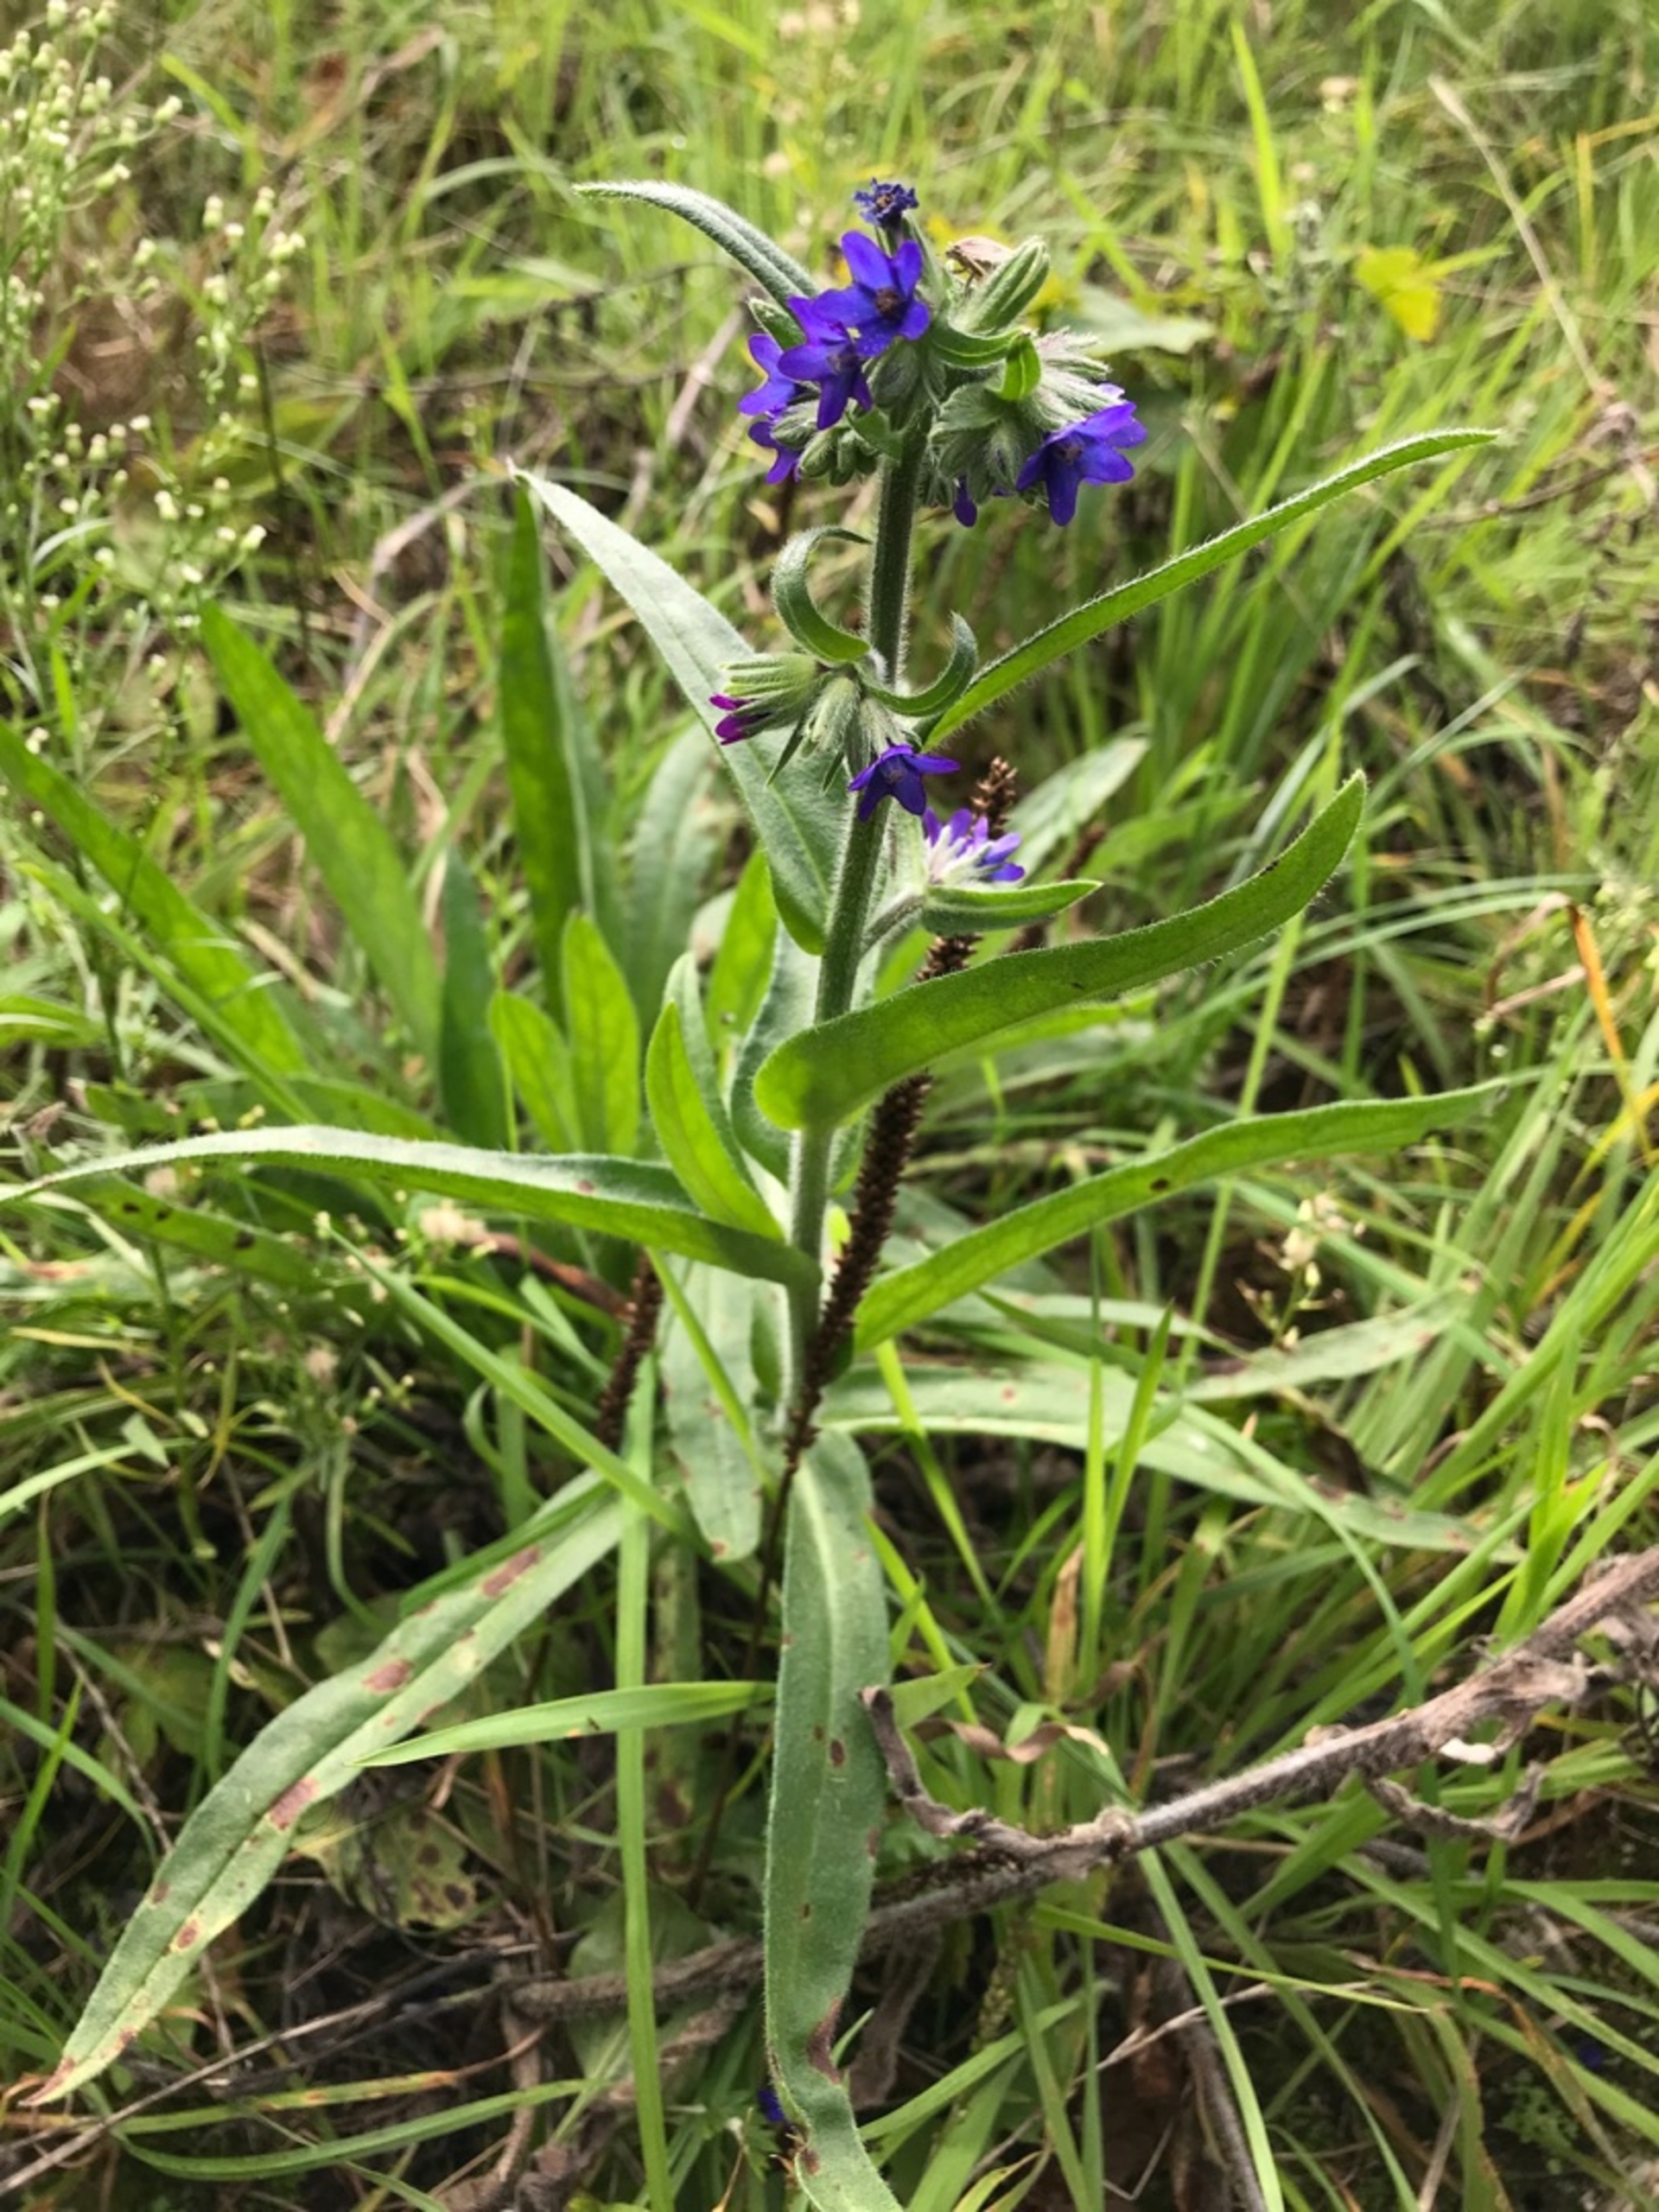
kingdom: Plantae
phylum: Tracheophyta
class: Magnoliopsida
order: Boraginales
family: Boraginaceae
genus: Anchusa
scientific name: Anchusa officinalis
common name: Læge-oksetunge
